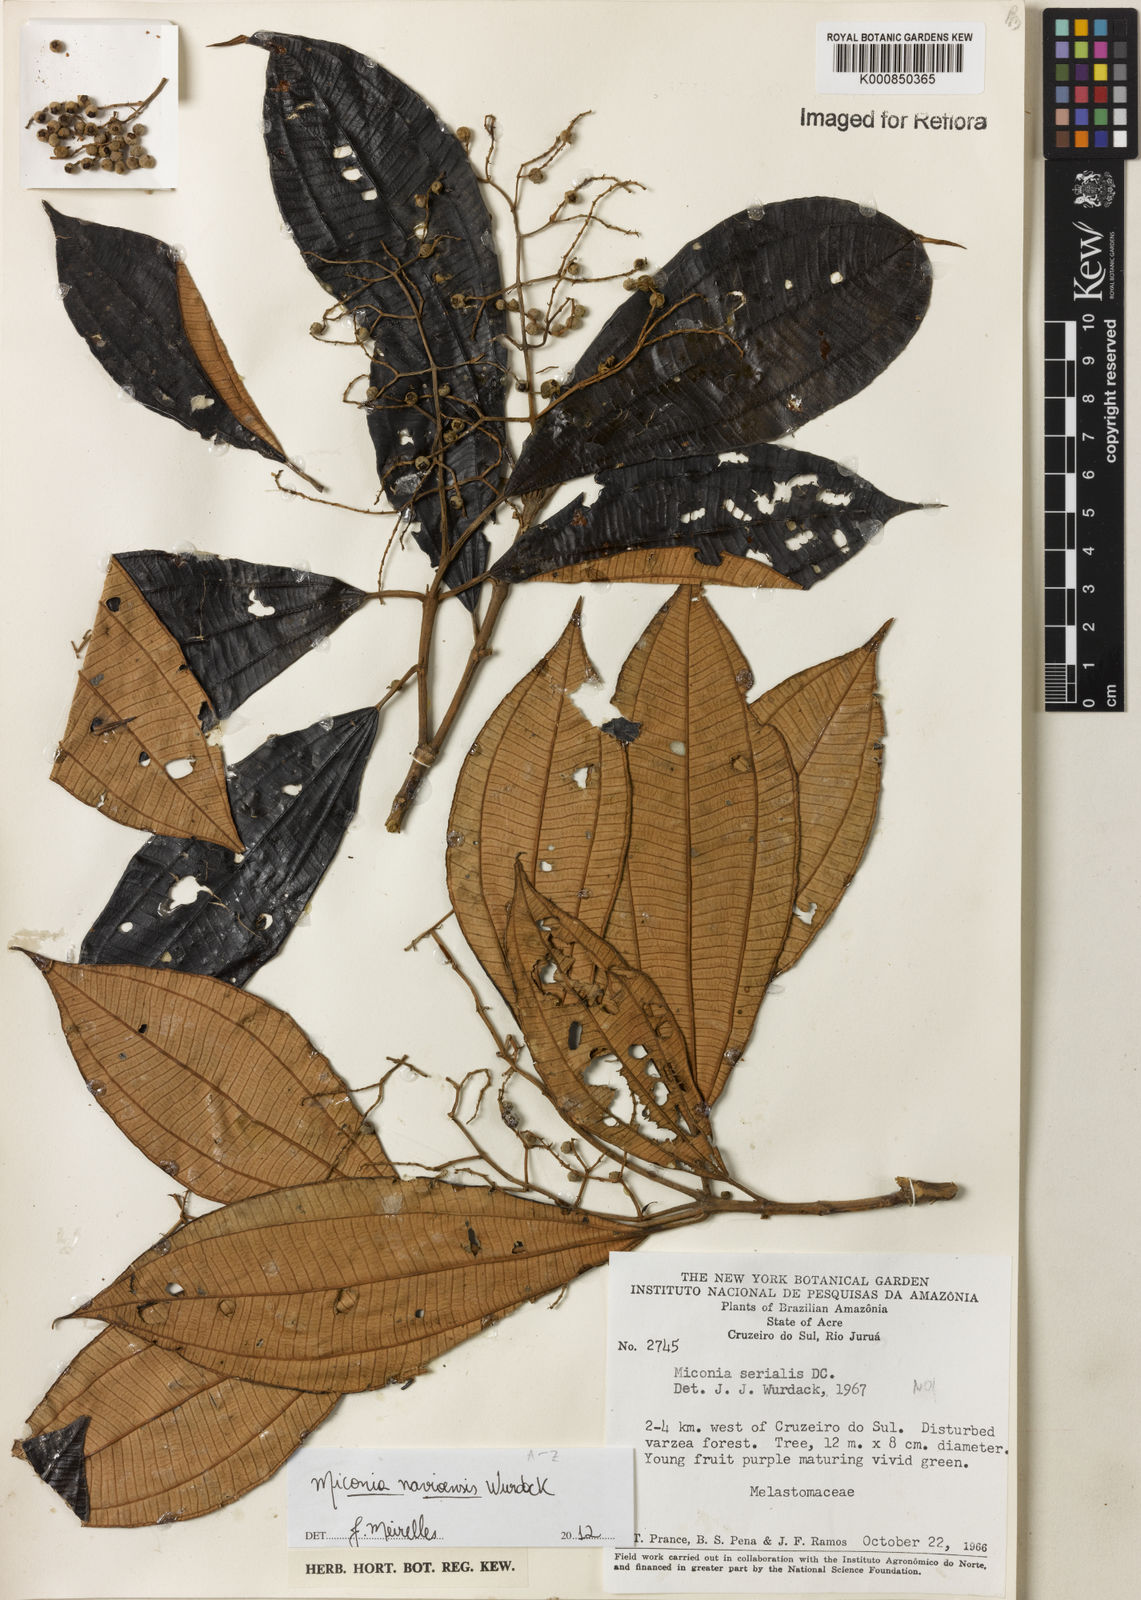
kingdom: Plantae
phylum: Tracheophyta
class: Magnoliopsida
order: Myrtales
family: Melastomataceae
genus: Miconia
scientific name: Miconia navioensis
